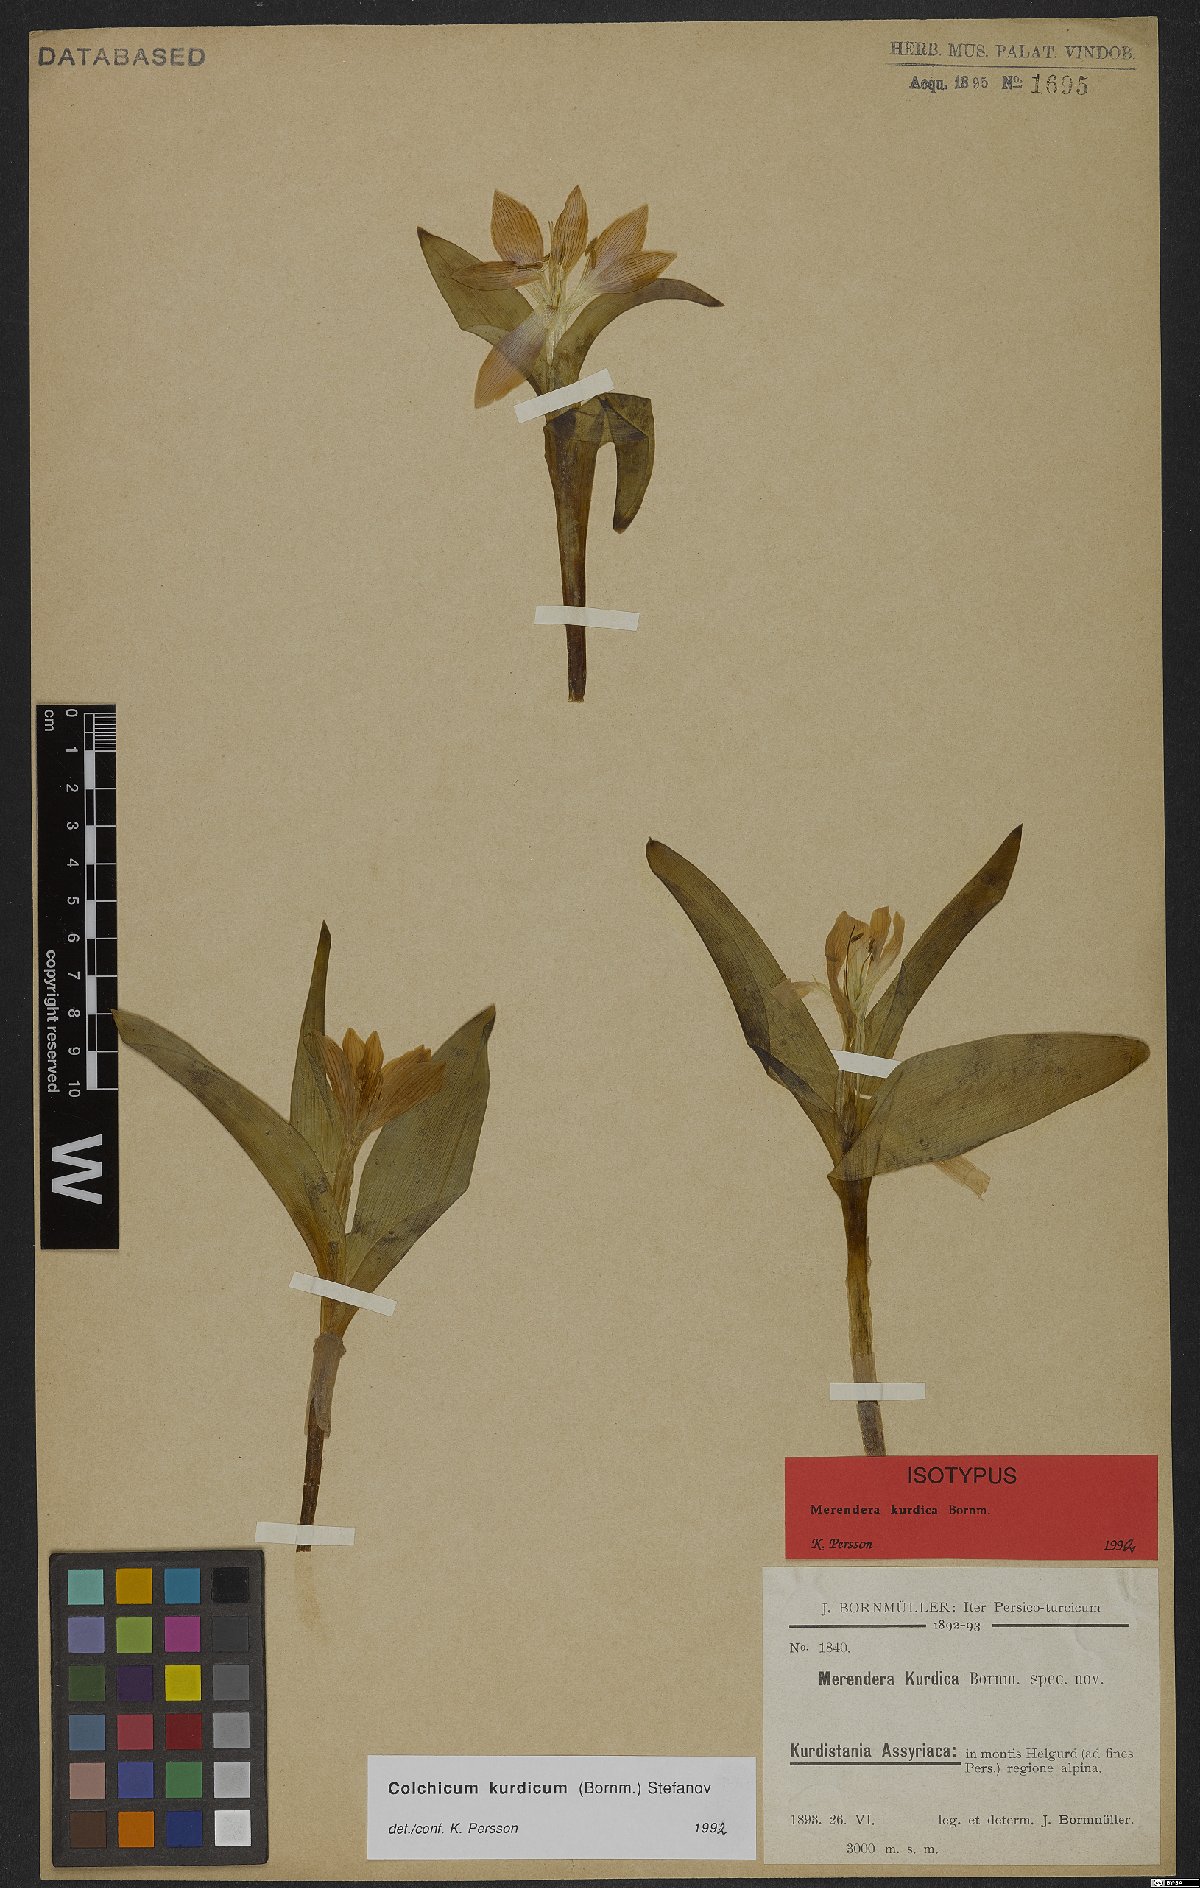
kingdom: Plantae
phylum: Tracheophyta
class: Liliopsida
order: Liliales
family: Colchicaceae
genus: Colchicum
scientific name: Colchicum kurdicum
